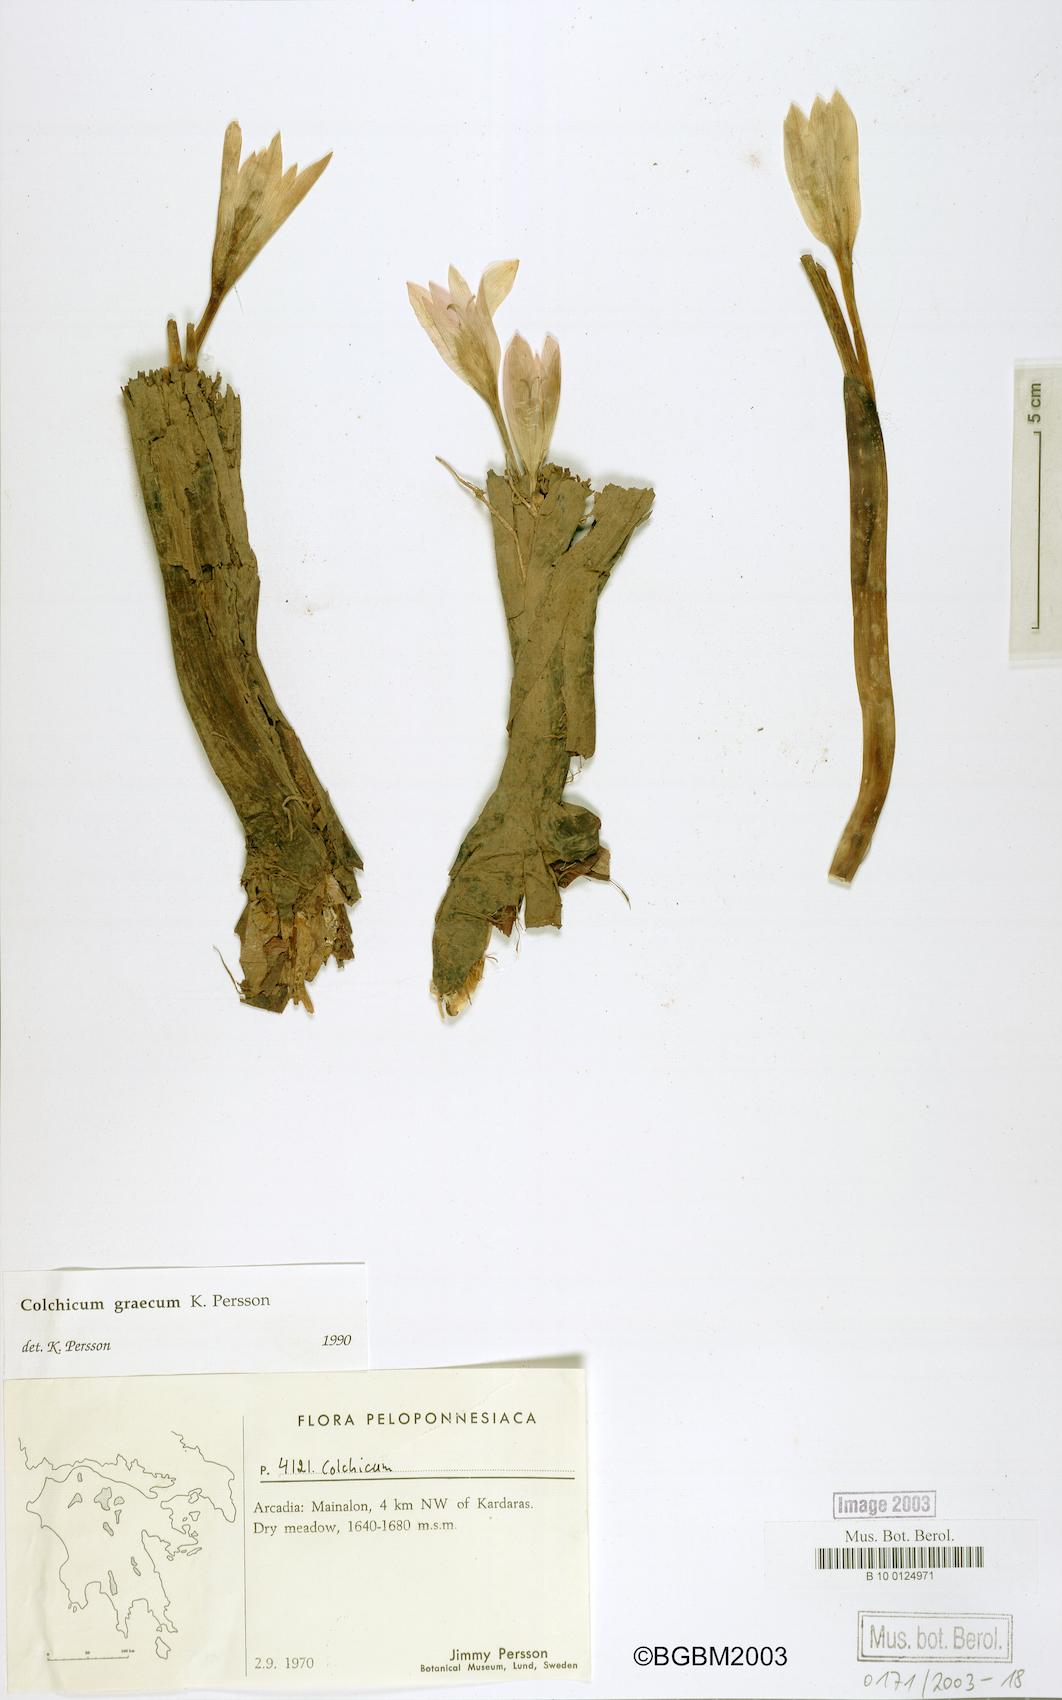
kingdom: Plantae
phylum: Tracheophyta
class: Liliopsida
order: Liliales
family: Colchicaceae
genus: Colchicum
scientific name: Colchicum graecum
